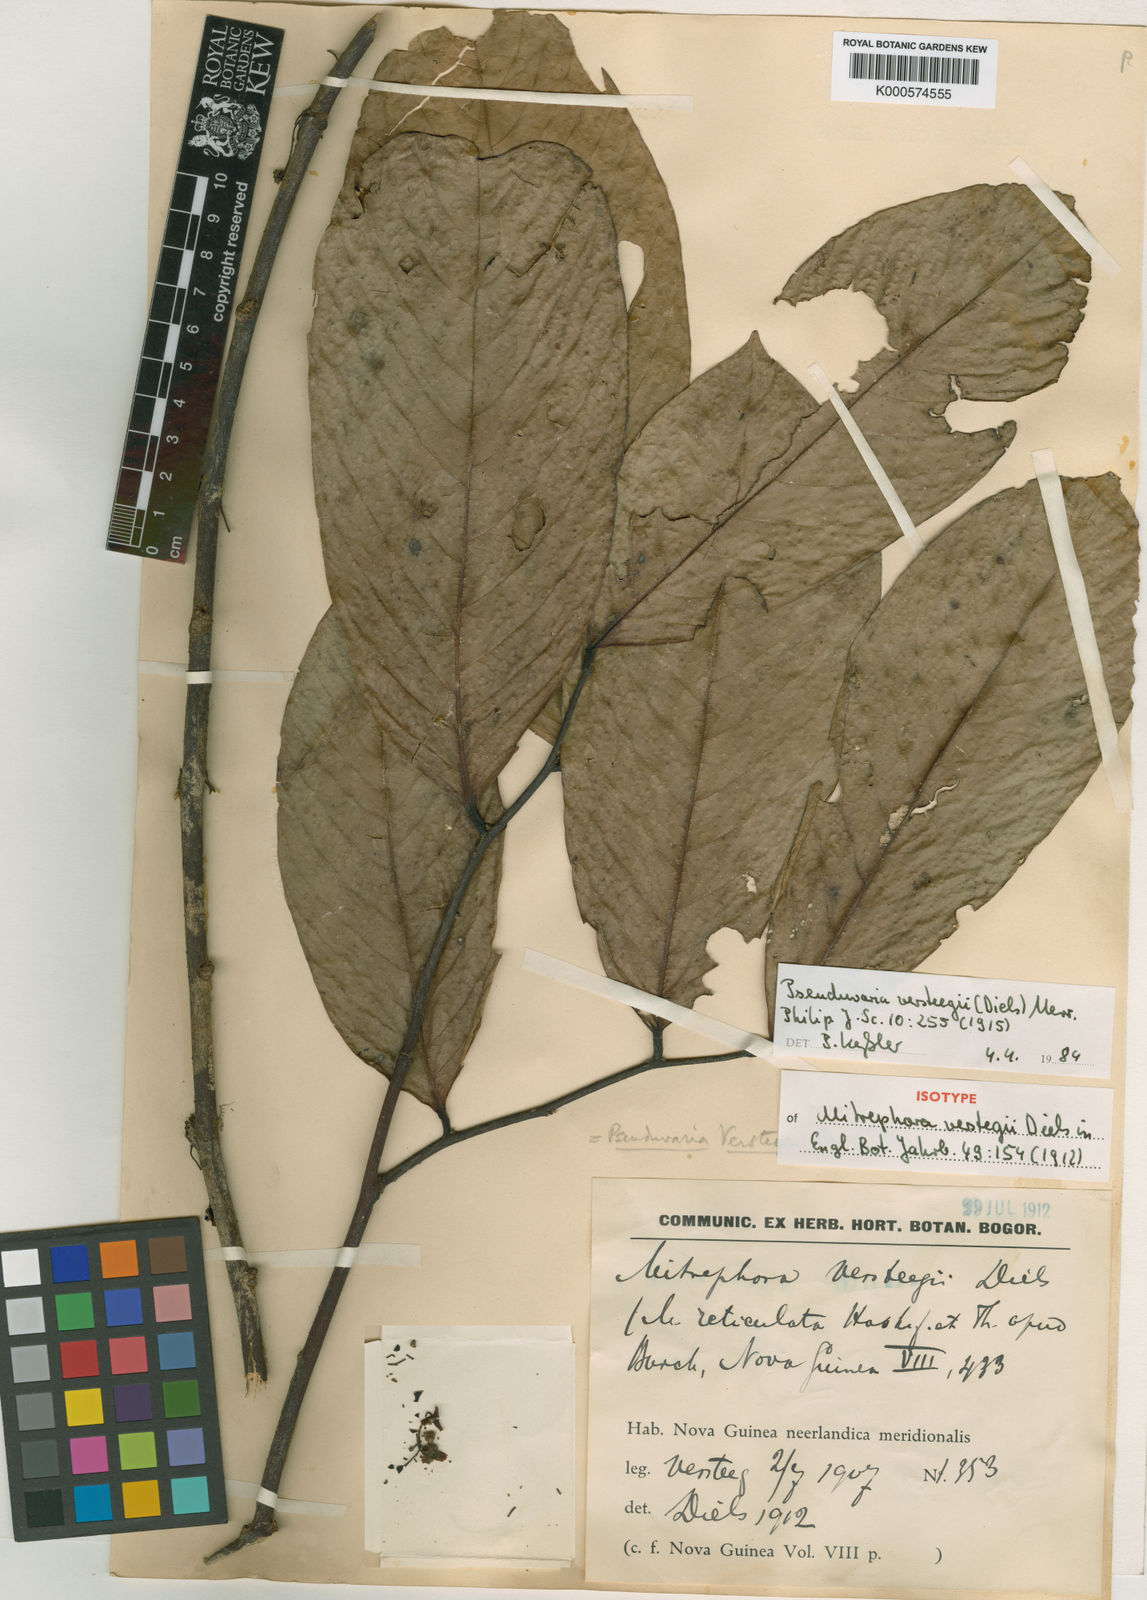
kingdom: Plantae
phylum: Tracheophyta
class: Magnoliopsida
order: Magnoliales
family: Annonaceae
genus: Pseuduvaria
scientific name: Pseuduvaria macrocarpa
